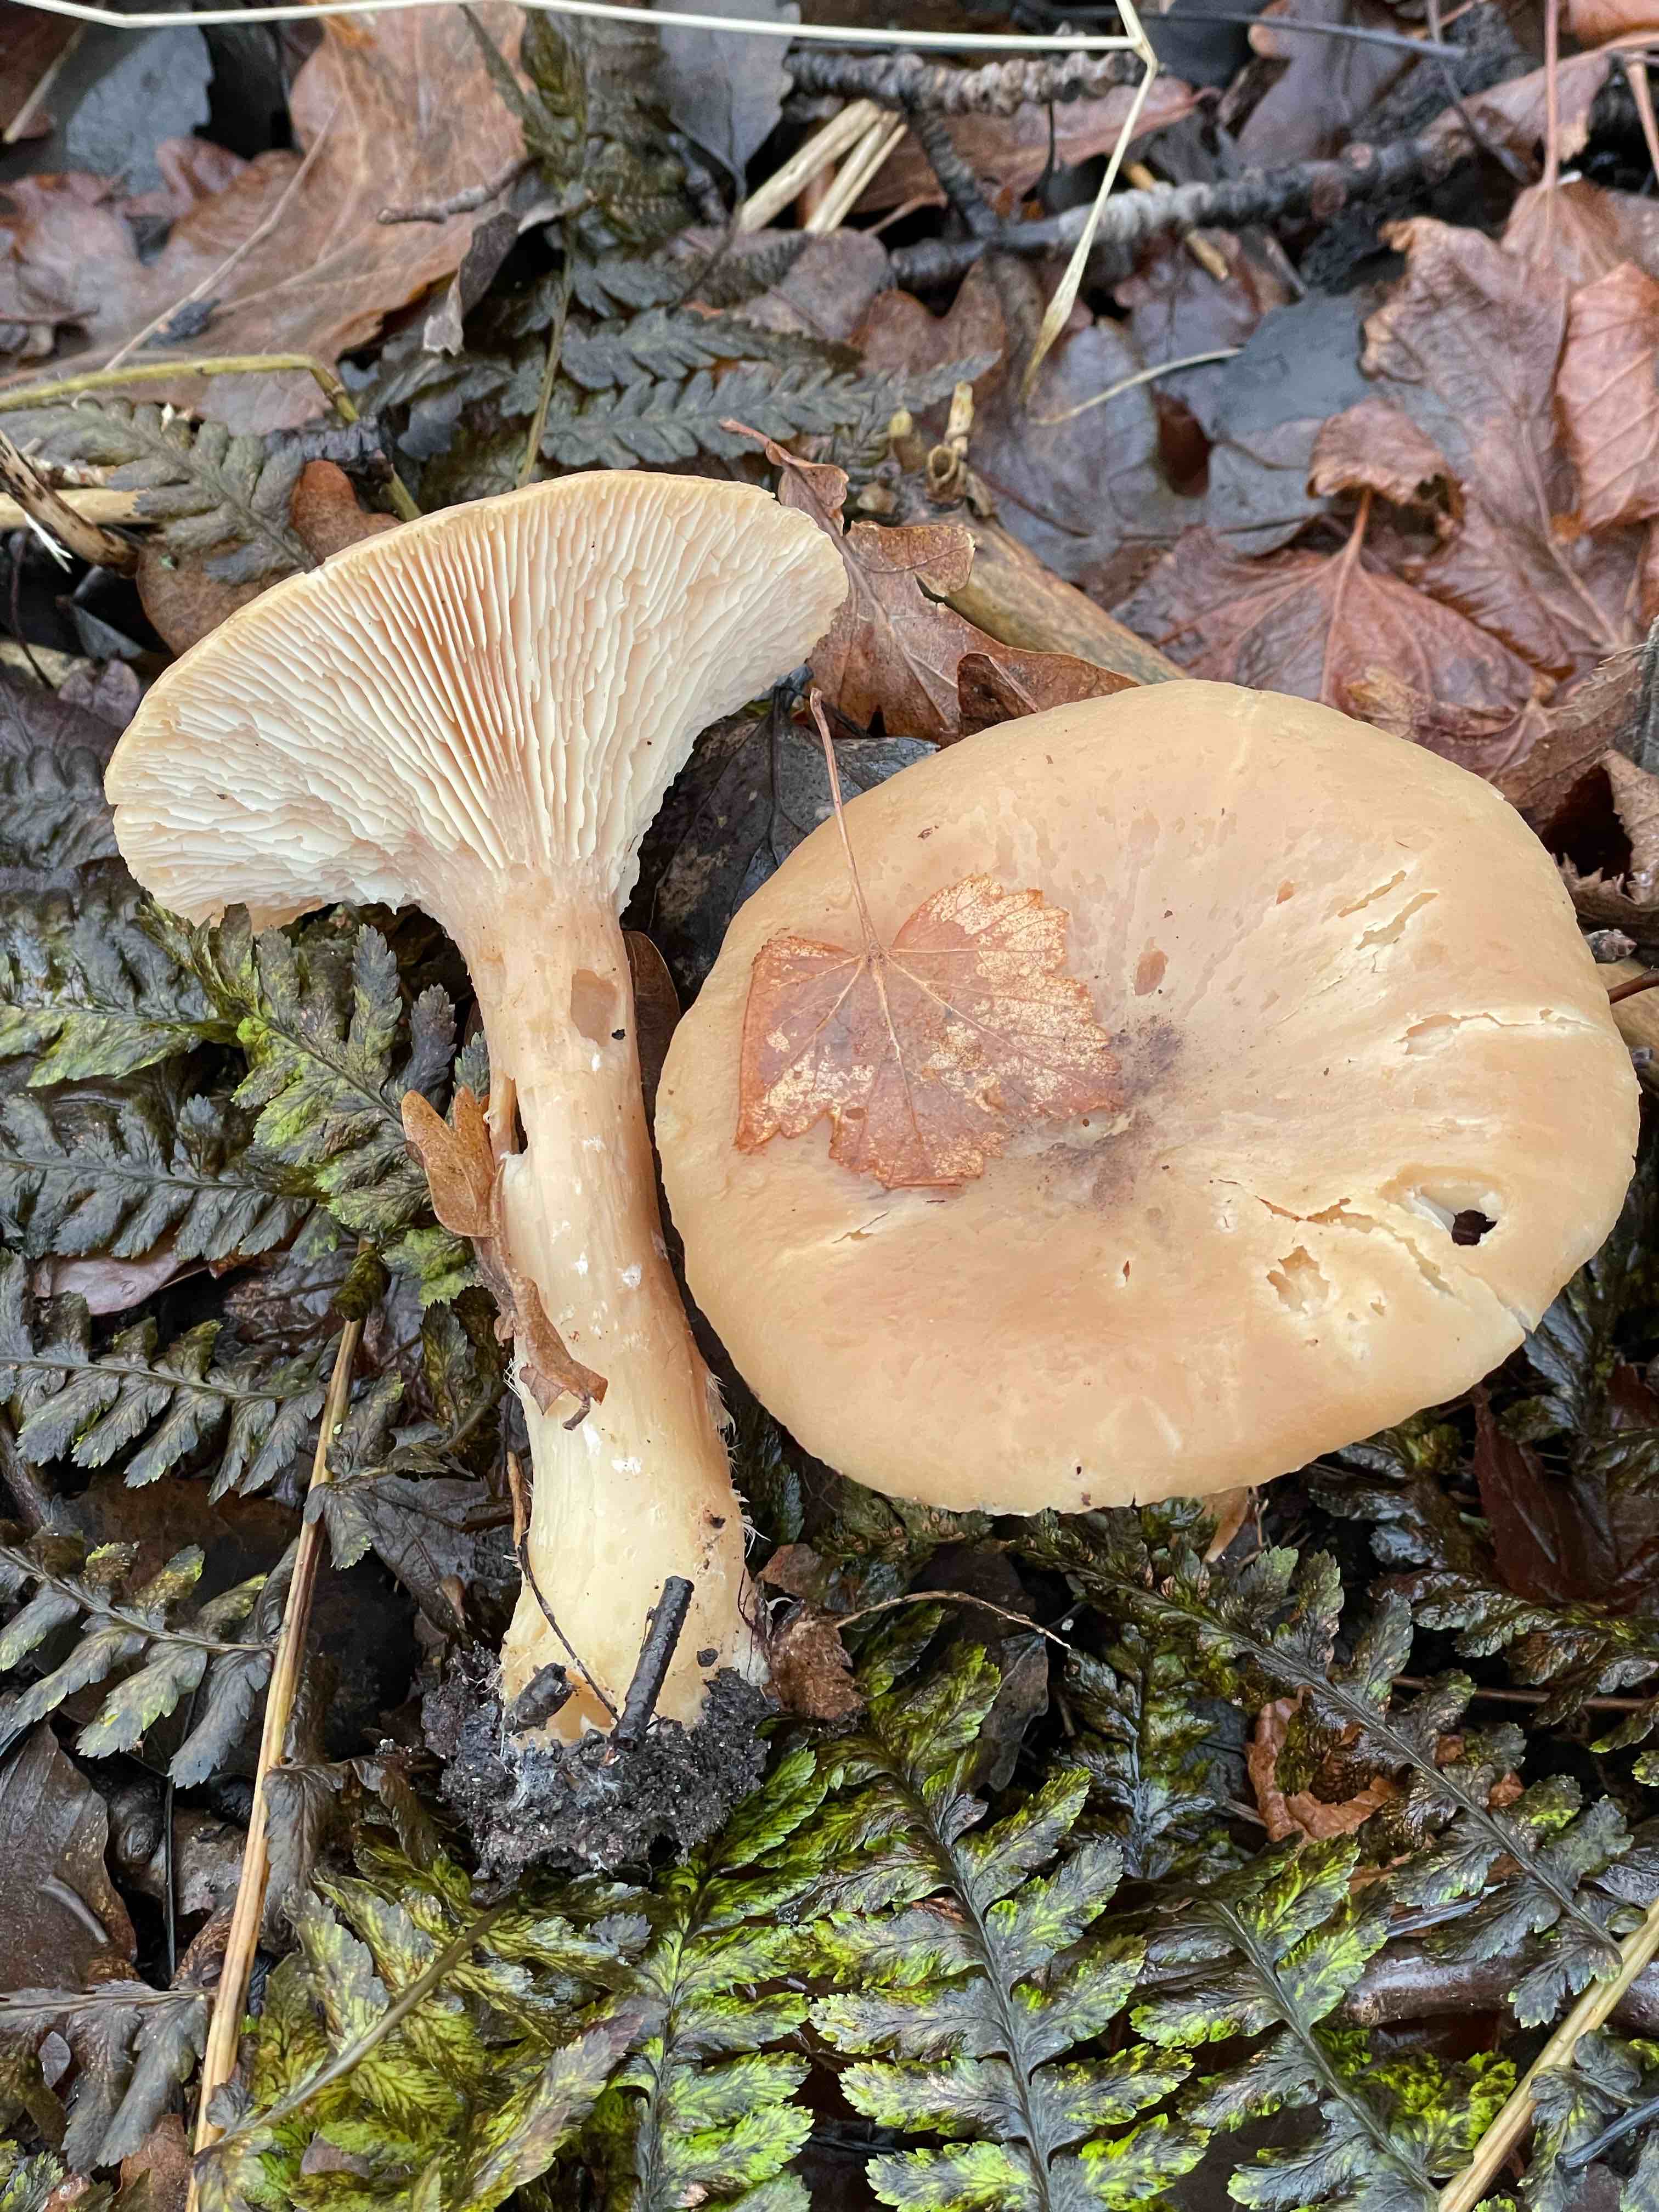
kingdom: Fungi
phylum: Basidiomycota
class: Agaricomycetes
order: Agaricales
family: Tricholomataceae
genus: Infundibulicybe
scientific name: Infundibulicybe geotropa
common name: stor tragthat
